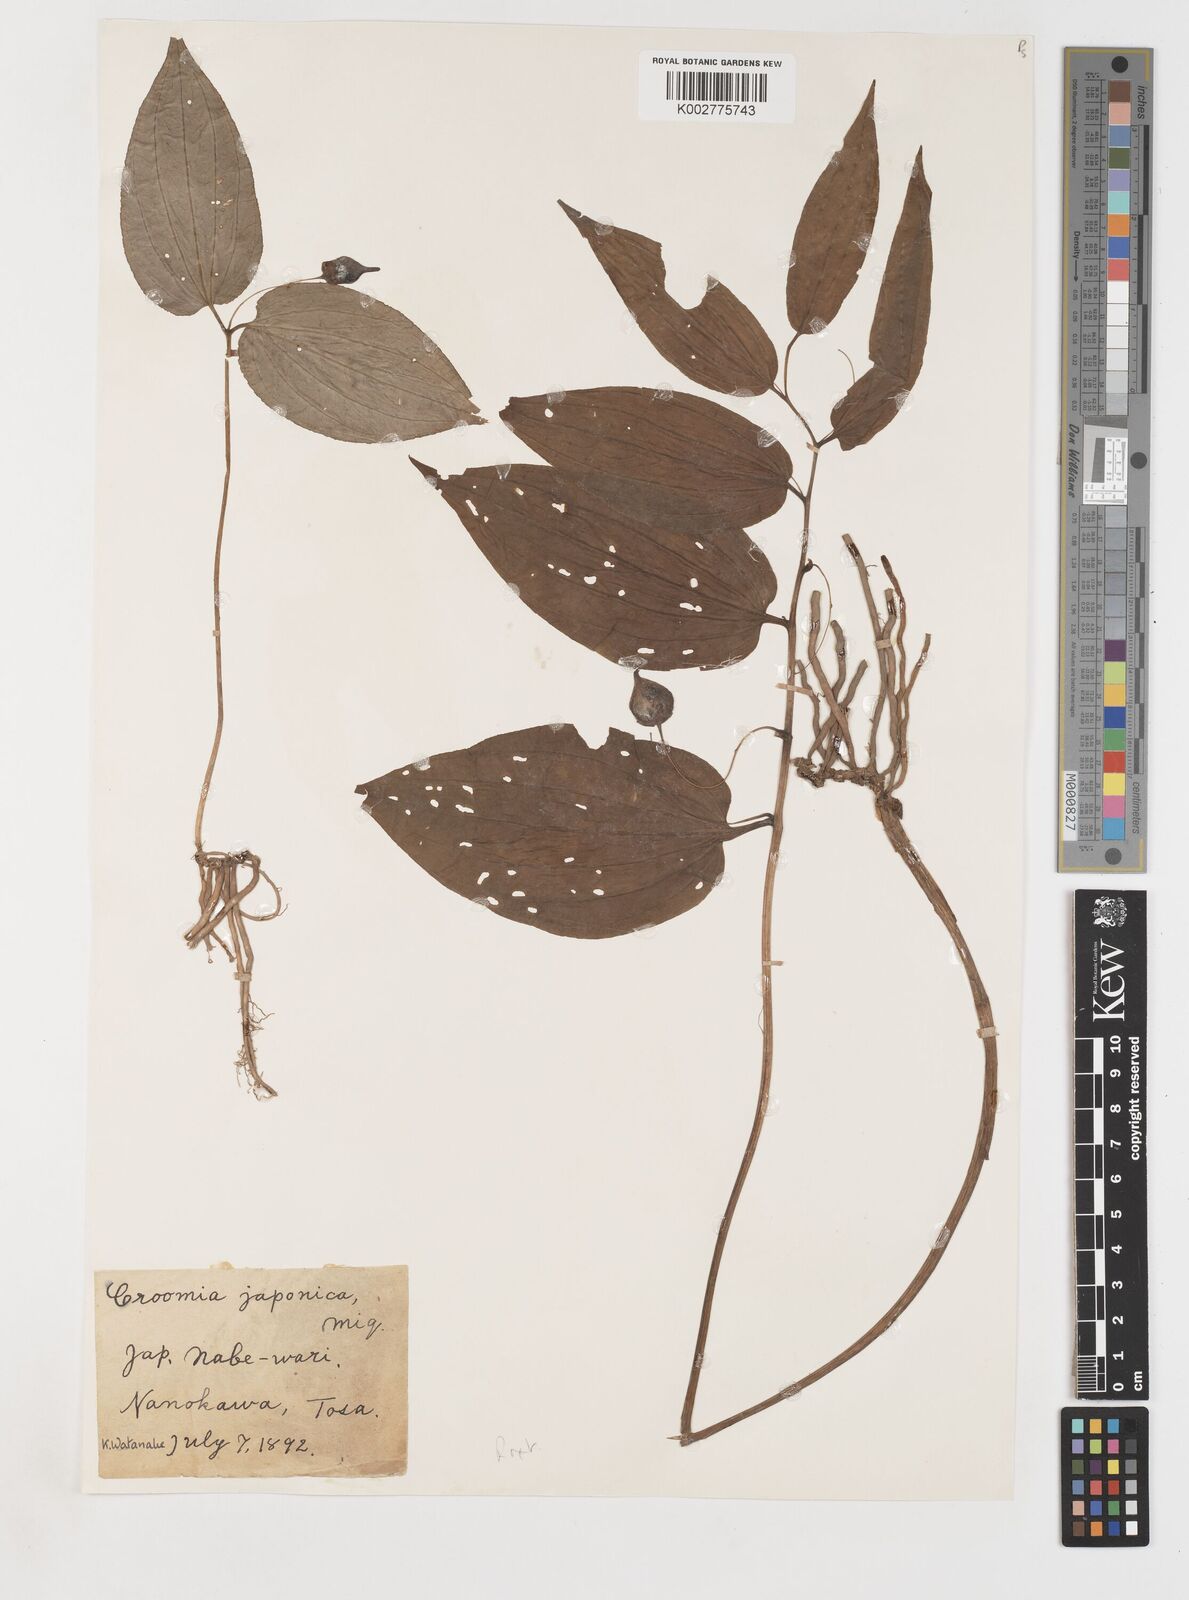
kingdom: Plantae
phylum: Tracheophyta
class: Liliopsida
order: Pandanales
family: Stemonaceae
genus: Croomia
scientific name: Croomia japonica
